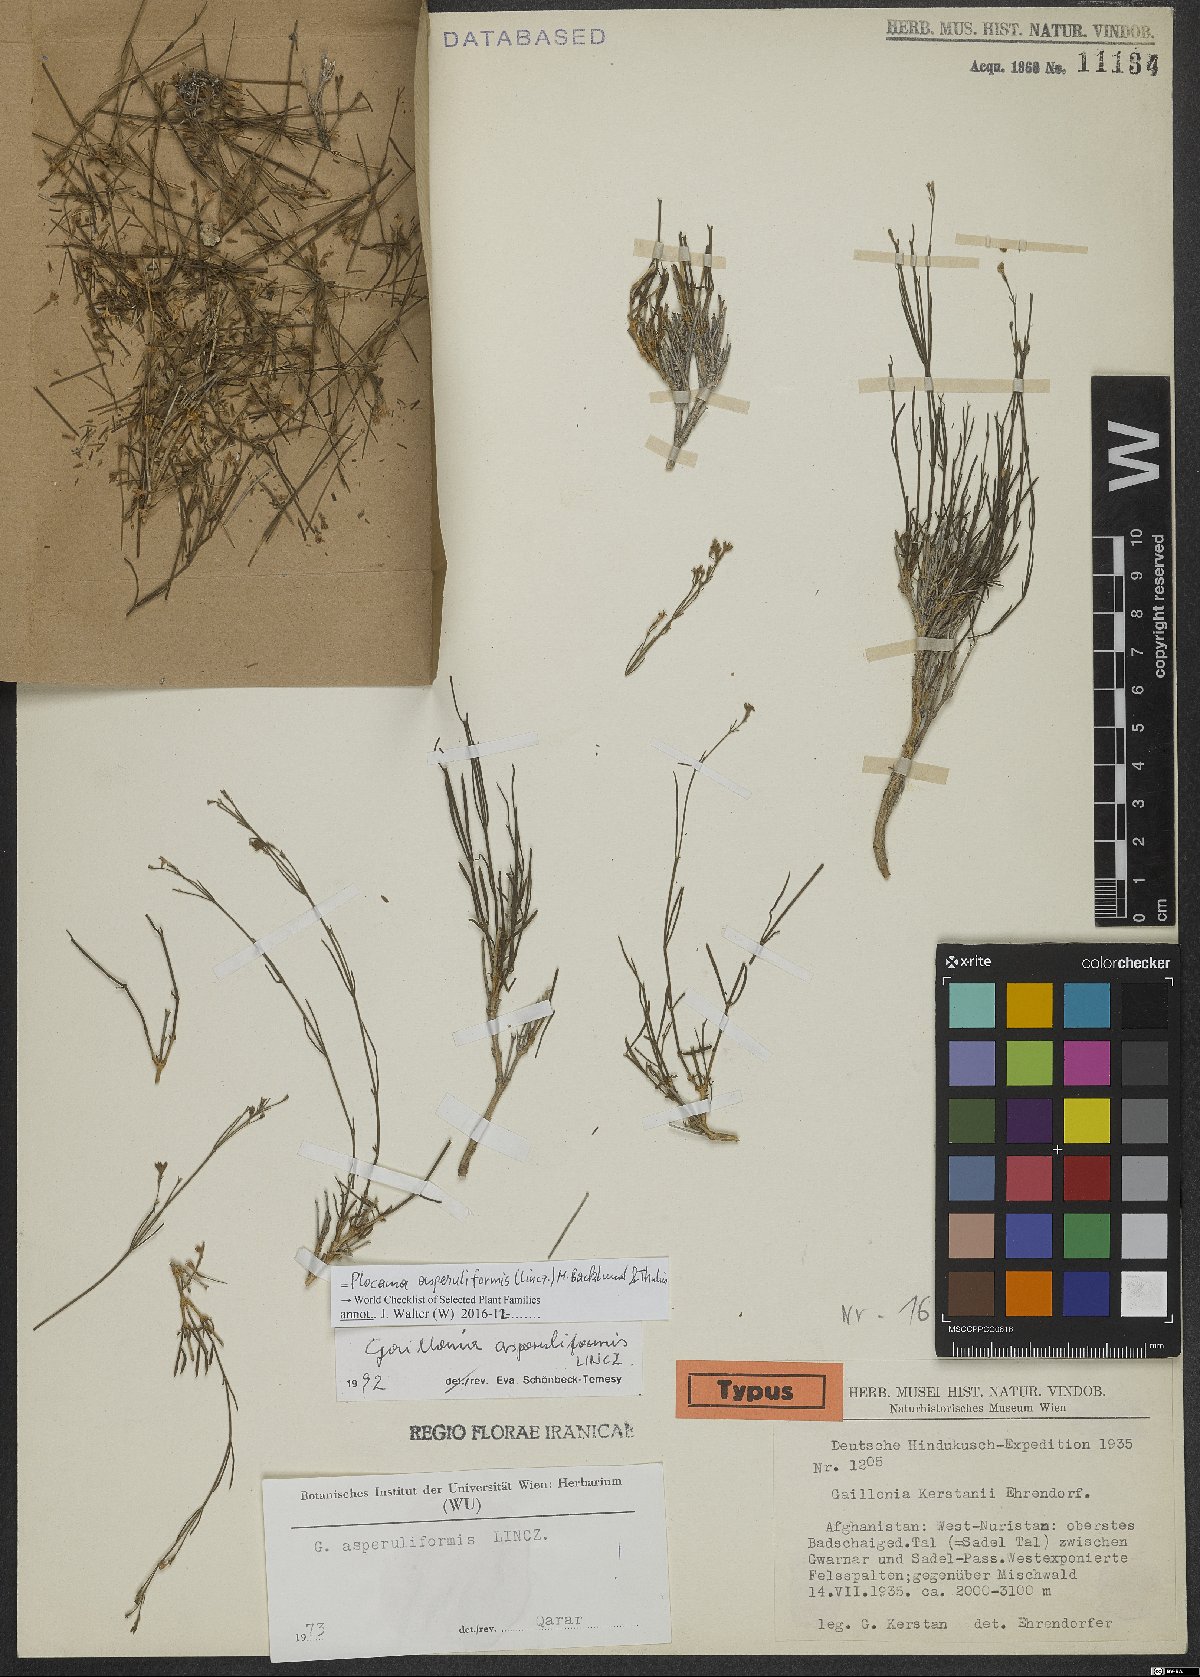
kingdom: Plantae
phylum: Tracheophyta
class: Magnoliopsida
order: Gentianales
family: Rubiaceae
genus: Plocama
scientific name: Plocama asperuliformis
